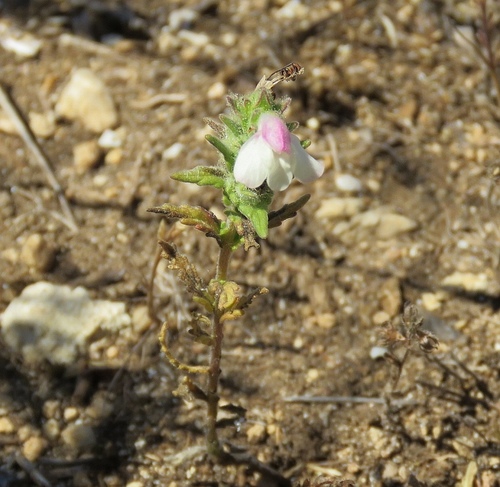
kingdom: Plantae
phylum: Tracheophyta
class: Magnoliopsida
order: Lamiales
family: Orobanchaceae
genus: Bellardia
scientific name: Bellardia trixago
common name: Mediterranean lineseed
